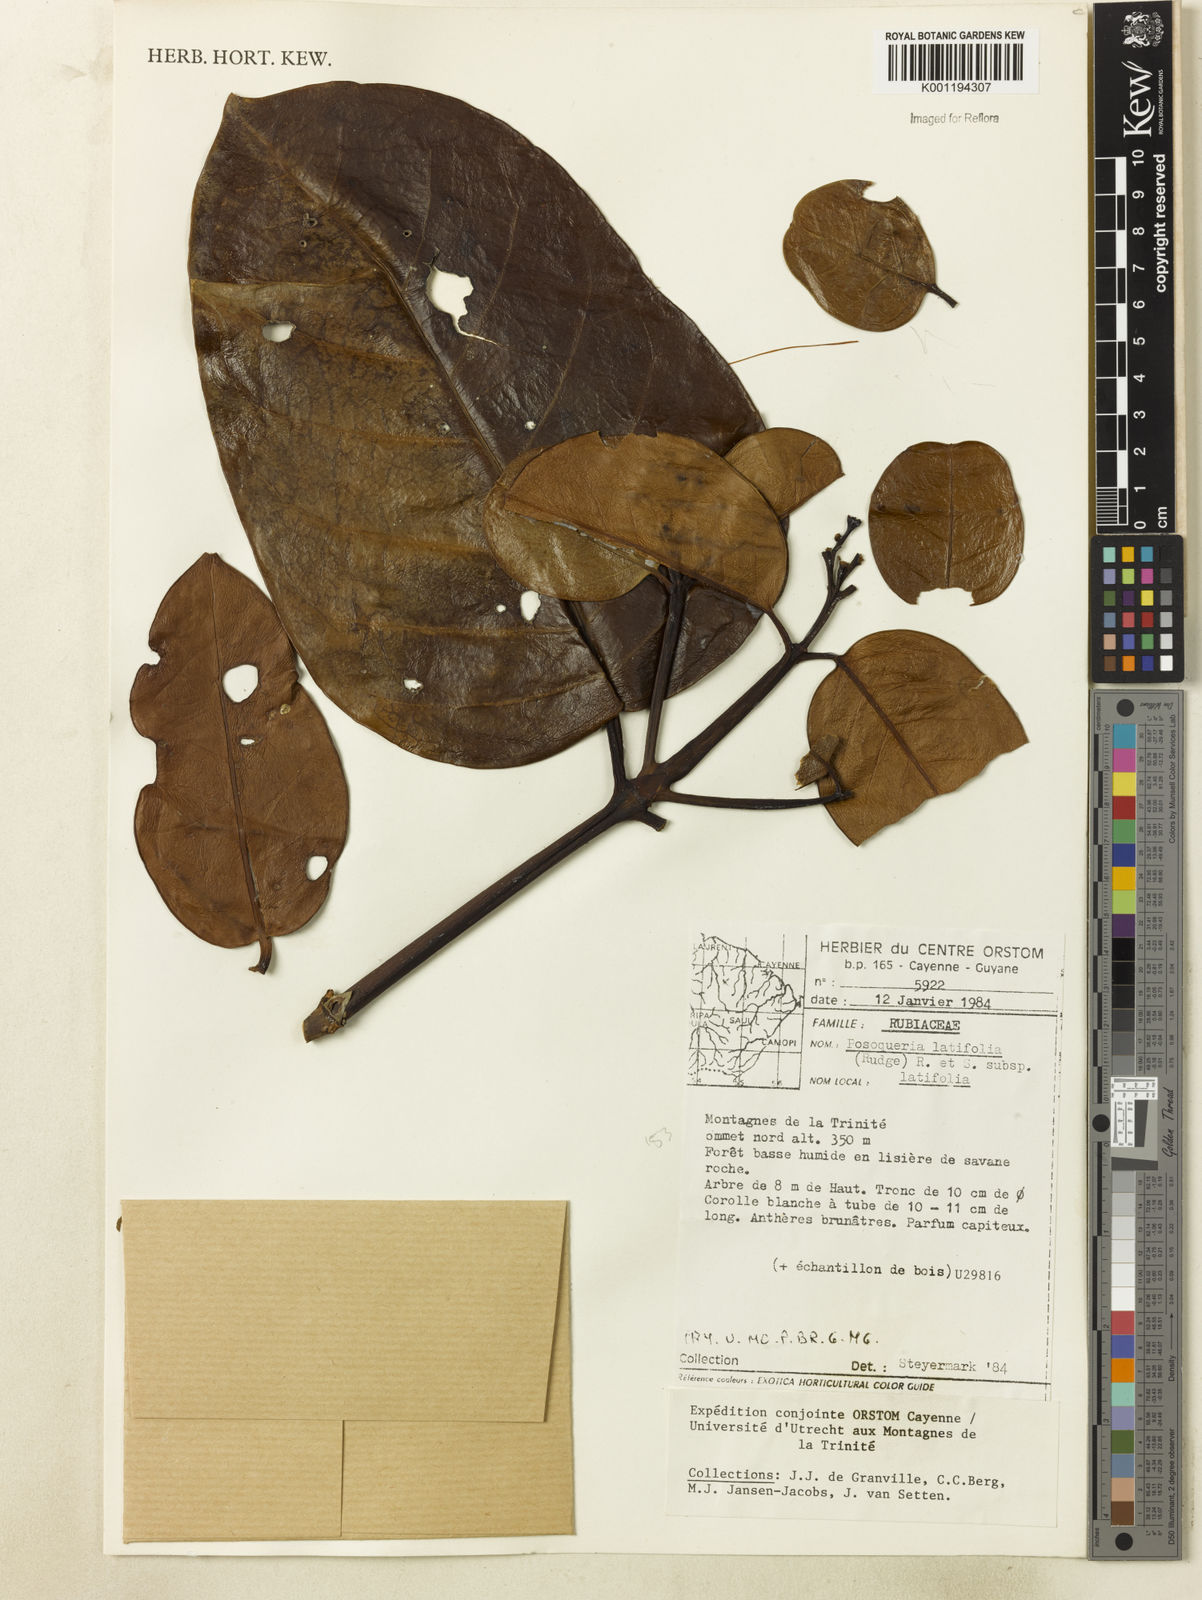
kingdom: Plantae
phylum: Tracheophyta
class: Magnoliopsida
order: Gentianales
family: Rubiaceae
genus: Posoqueria
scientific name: Posoqueria latifolia
